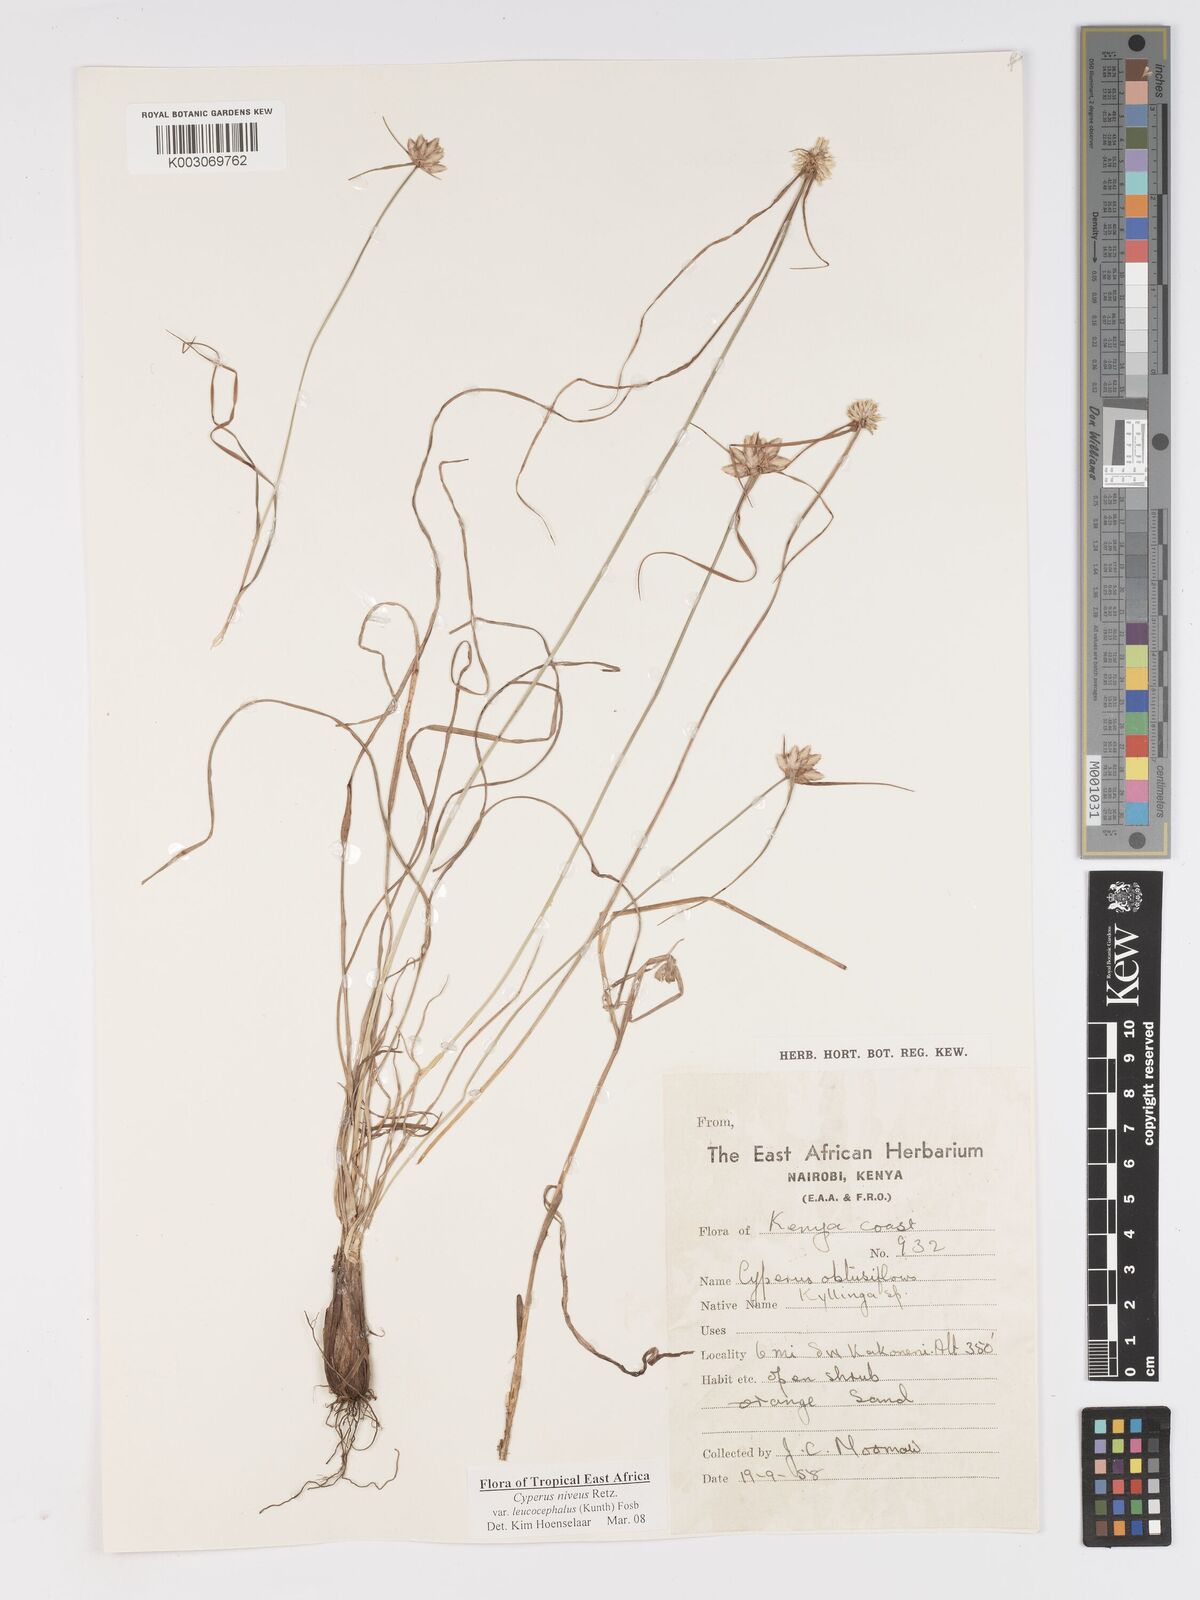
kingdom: Plantae
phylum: Tracheophyta
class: Liliopsida
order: Poales
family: Cyperaceae
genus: Cyperus
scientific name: Cyperus niveus
